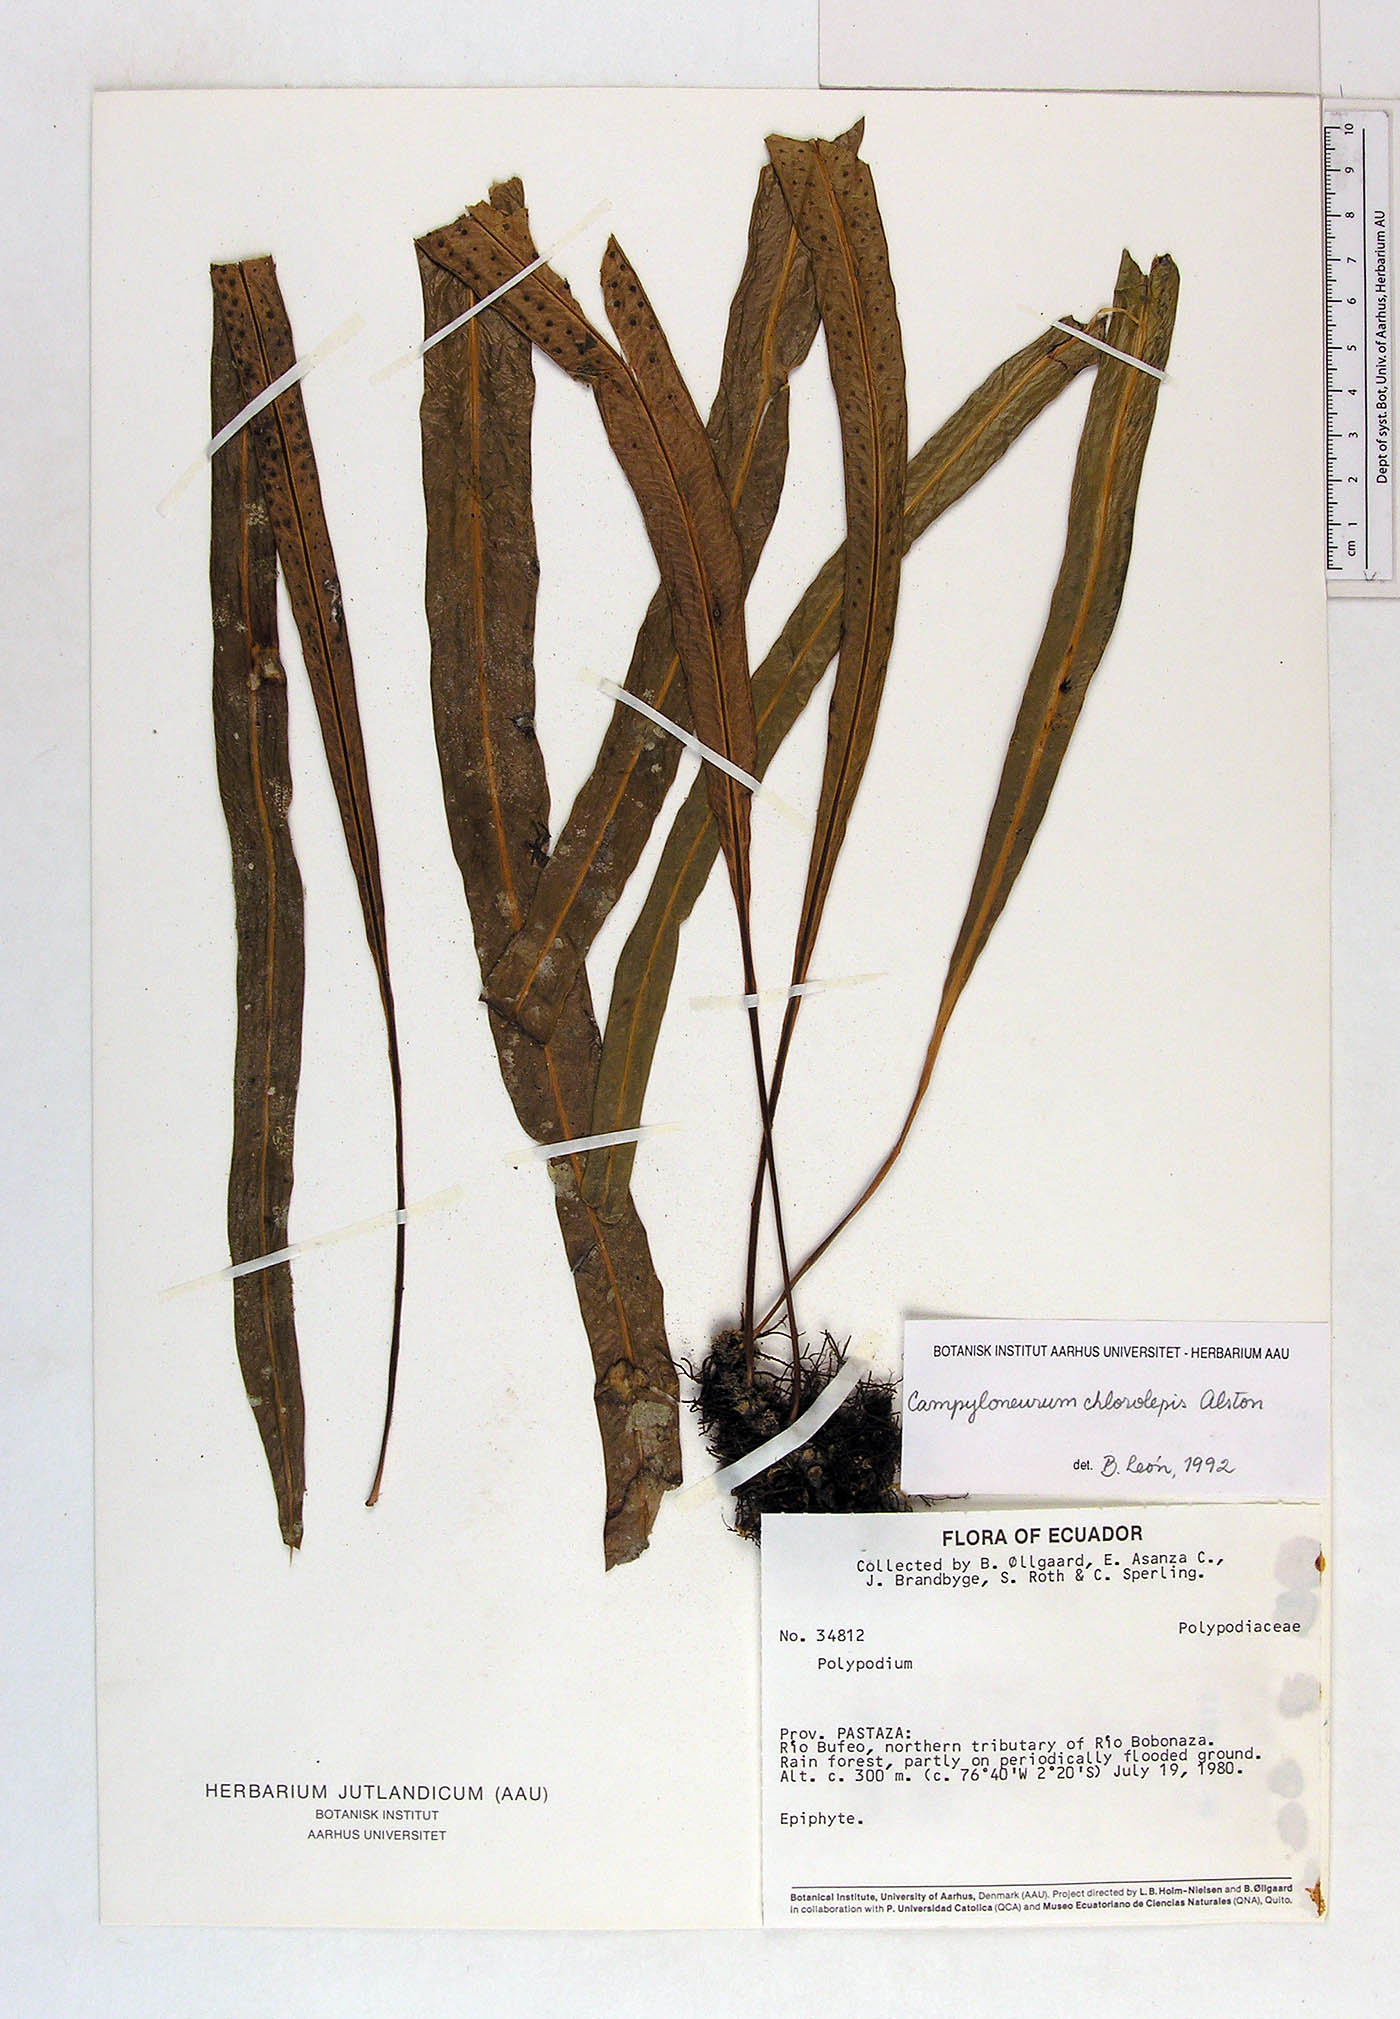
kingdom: Plantae
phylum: Tracheophyta
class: Polypodiopsida
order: Polypodiales
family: Polypodiaceae
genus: Campyloneurum
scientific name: Campyloneurum angustifolium
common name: Narrow-leaf strap fern
